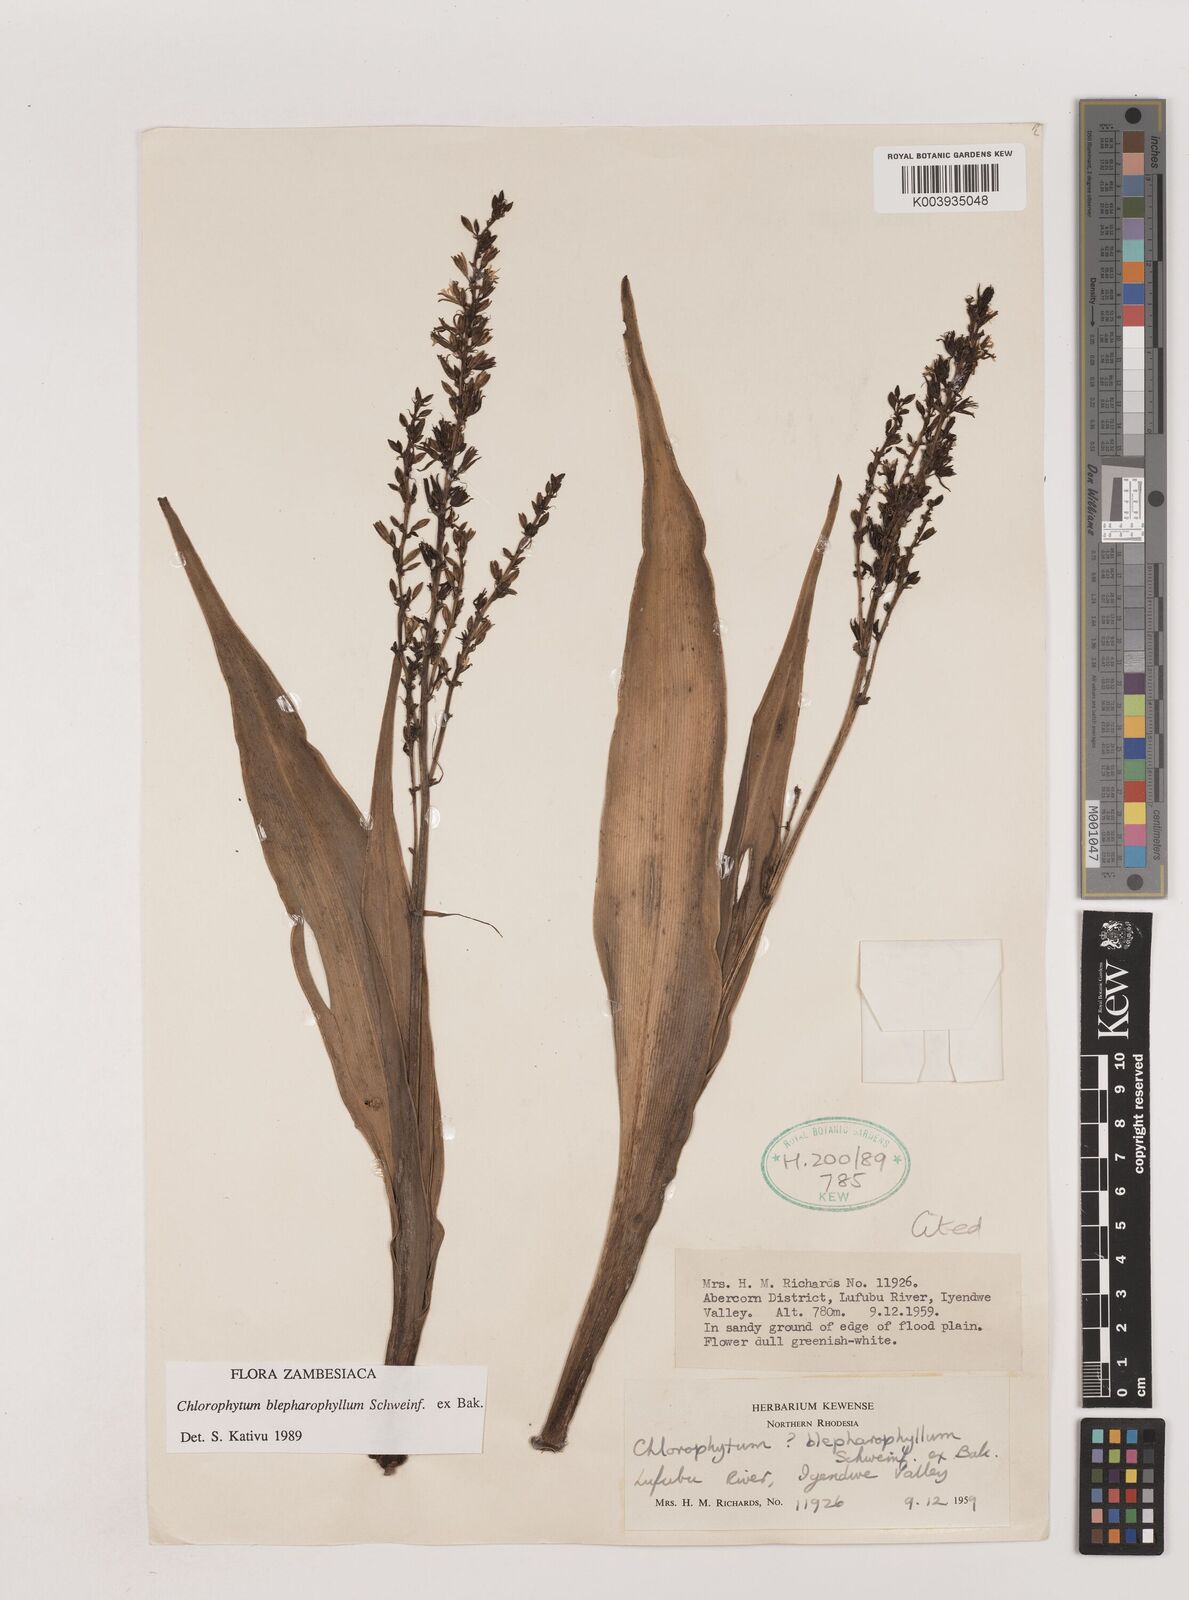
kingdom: Plantae
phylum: Tracheophyta
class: Liliopsida
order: Asparagales
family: Asparagaceae
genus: Chlorophytum
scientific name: Chlorophytum blepharophyllum
